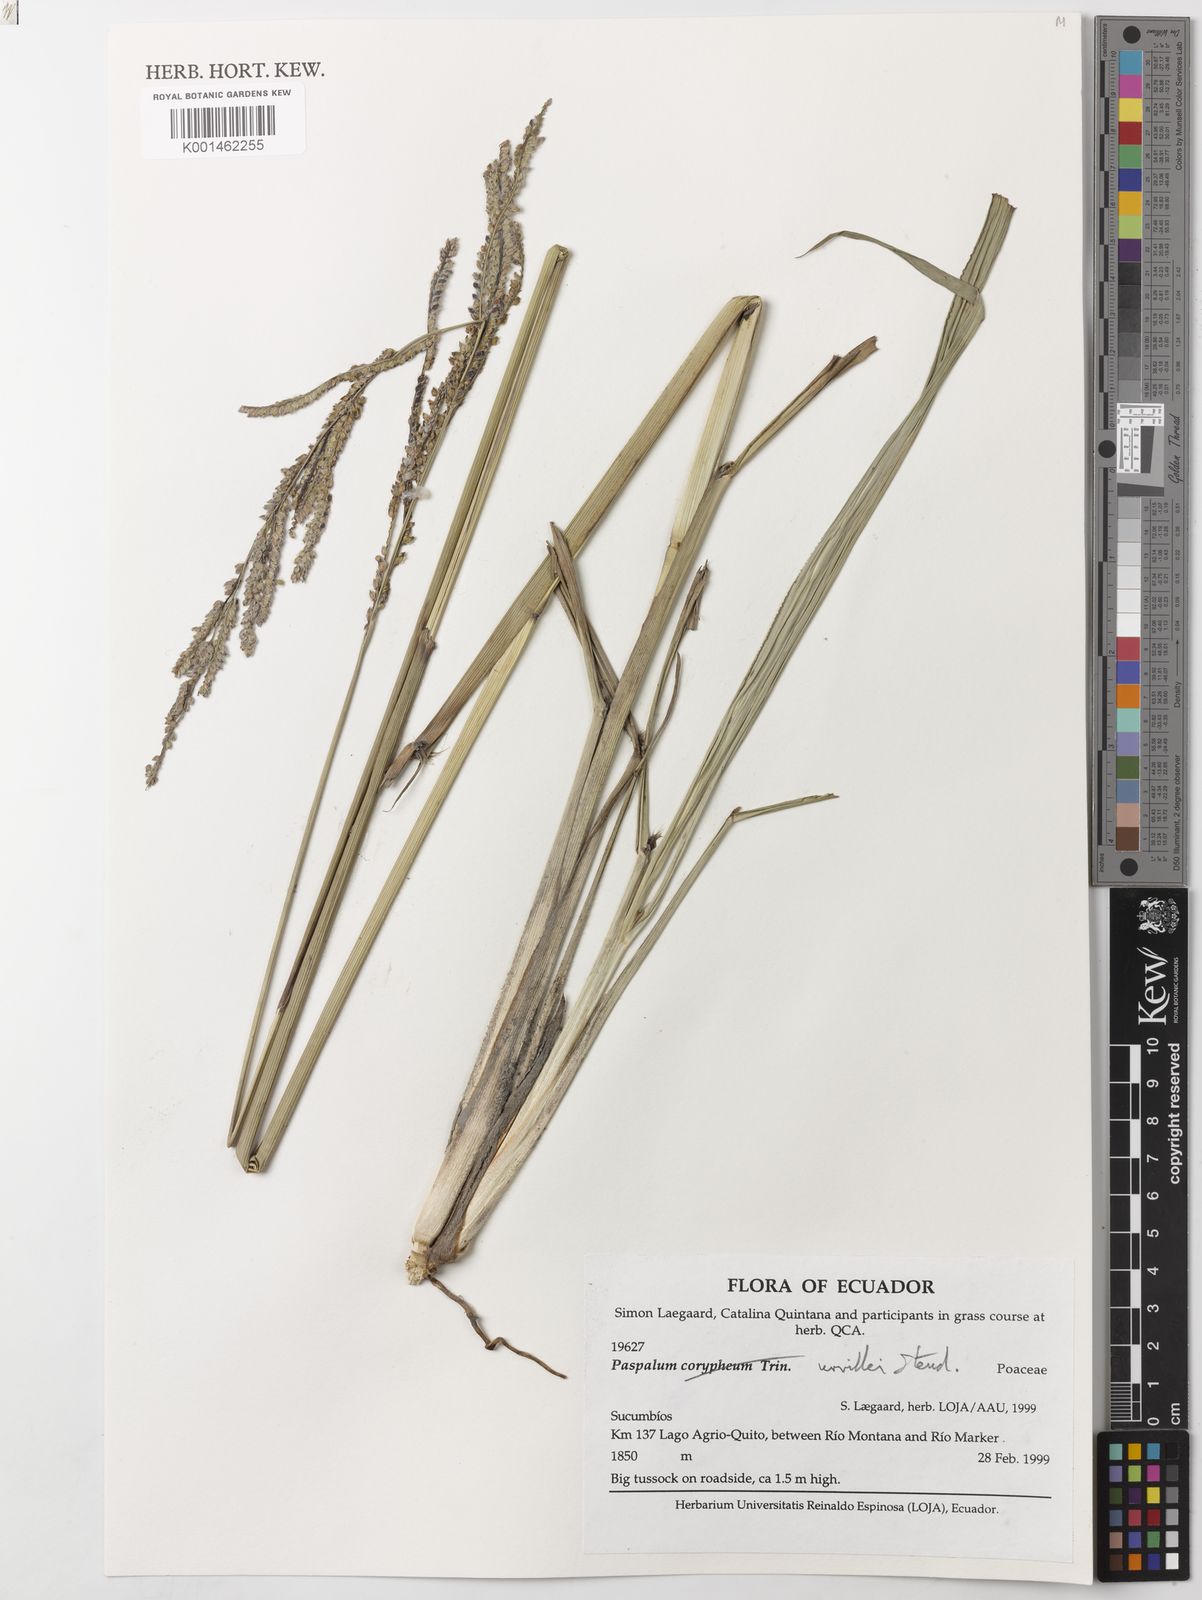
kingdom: Plantae
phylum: Tracheophyta
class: Liliopsida
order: Poales
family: Poaceae
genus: Paspalum
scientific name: Paspalum urvillei
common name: Vasey's grass
